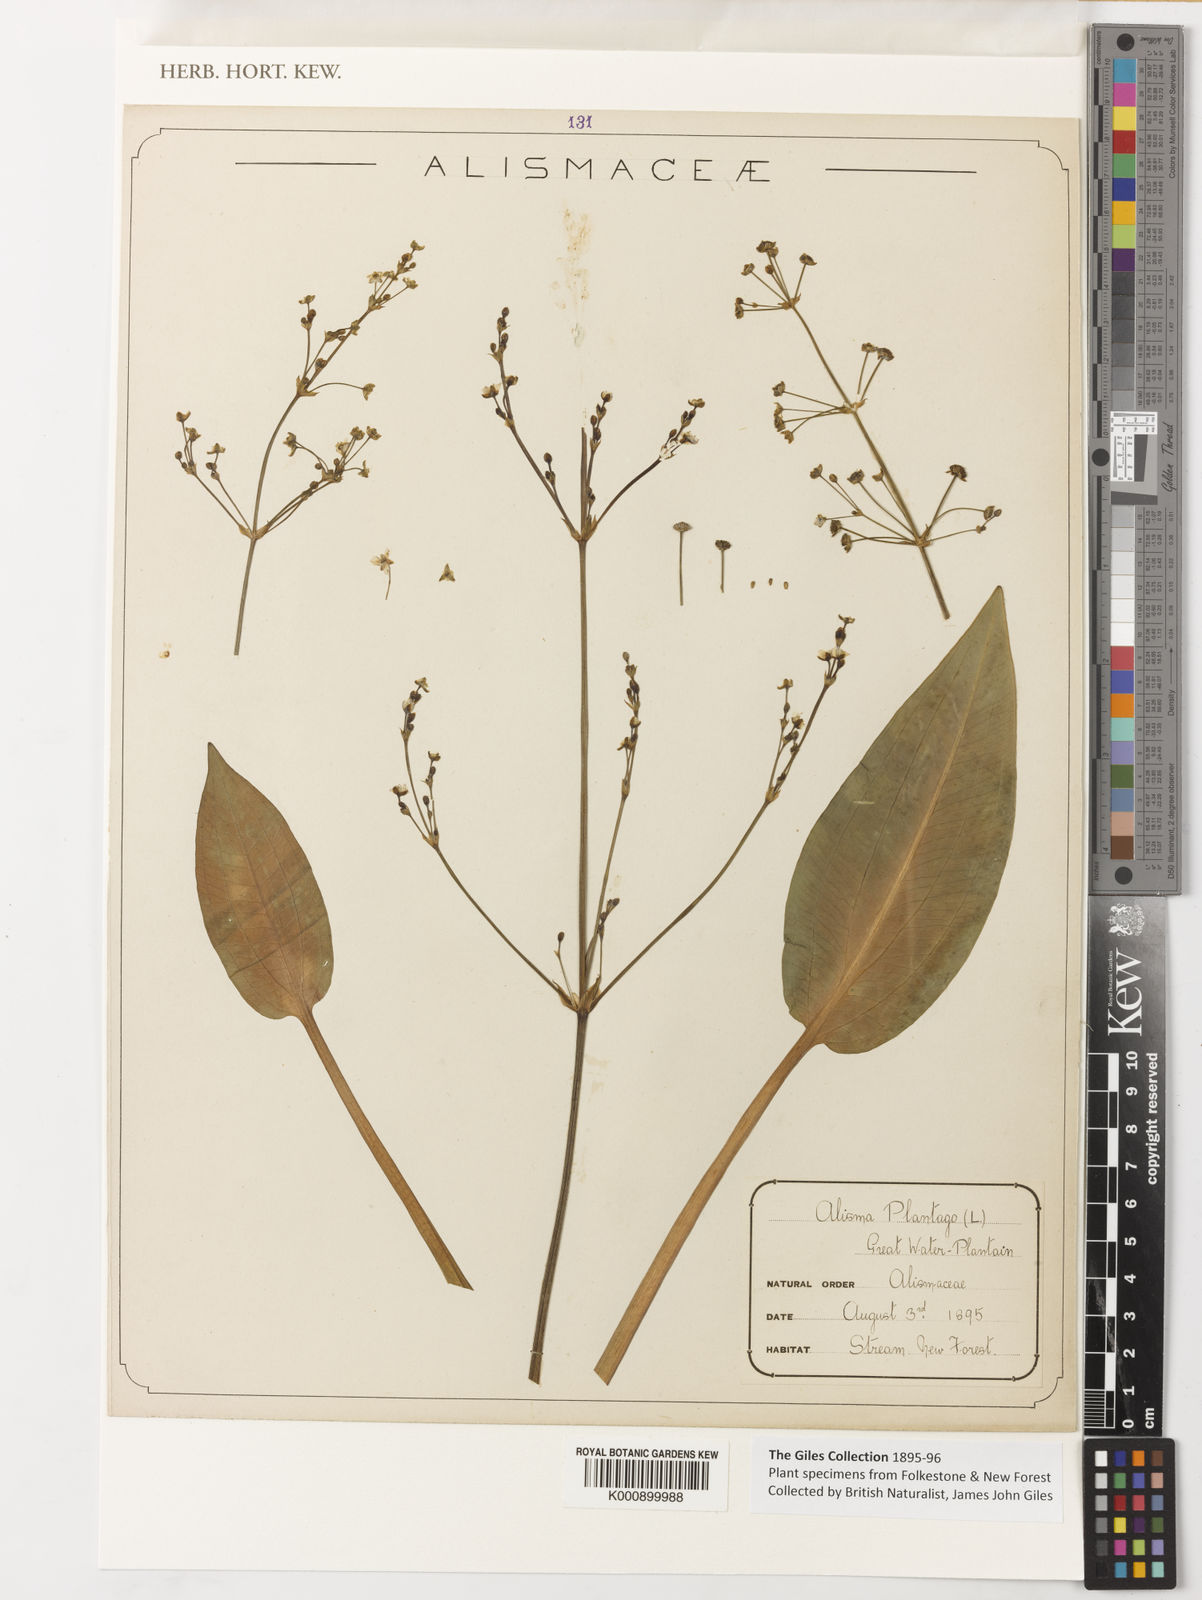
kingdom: Plantae
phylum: Tracheophyta
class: Liliopsida
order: Alismatales
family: Alismataceae
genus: Alisma
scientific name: Alisma
